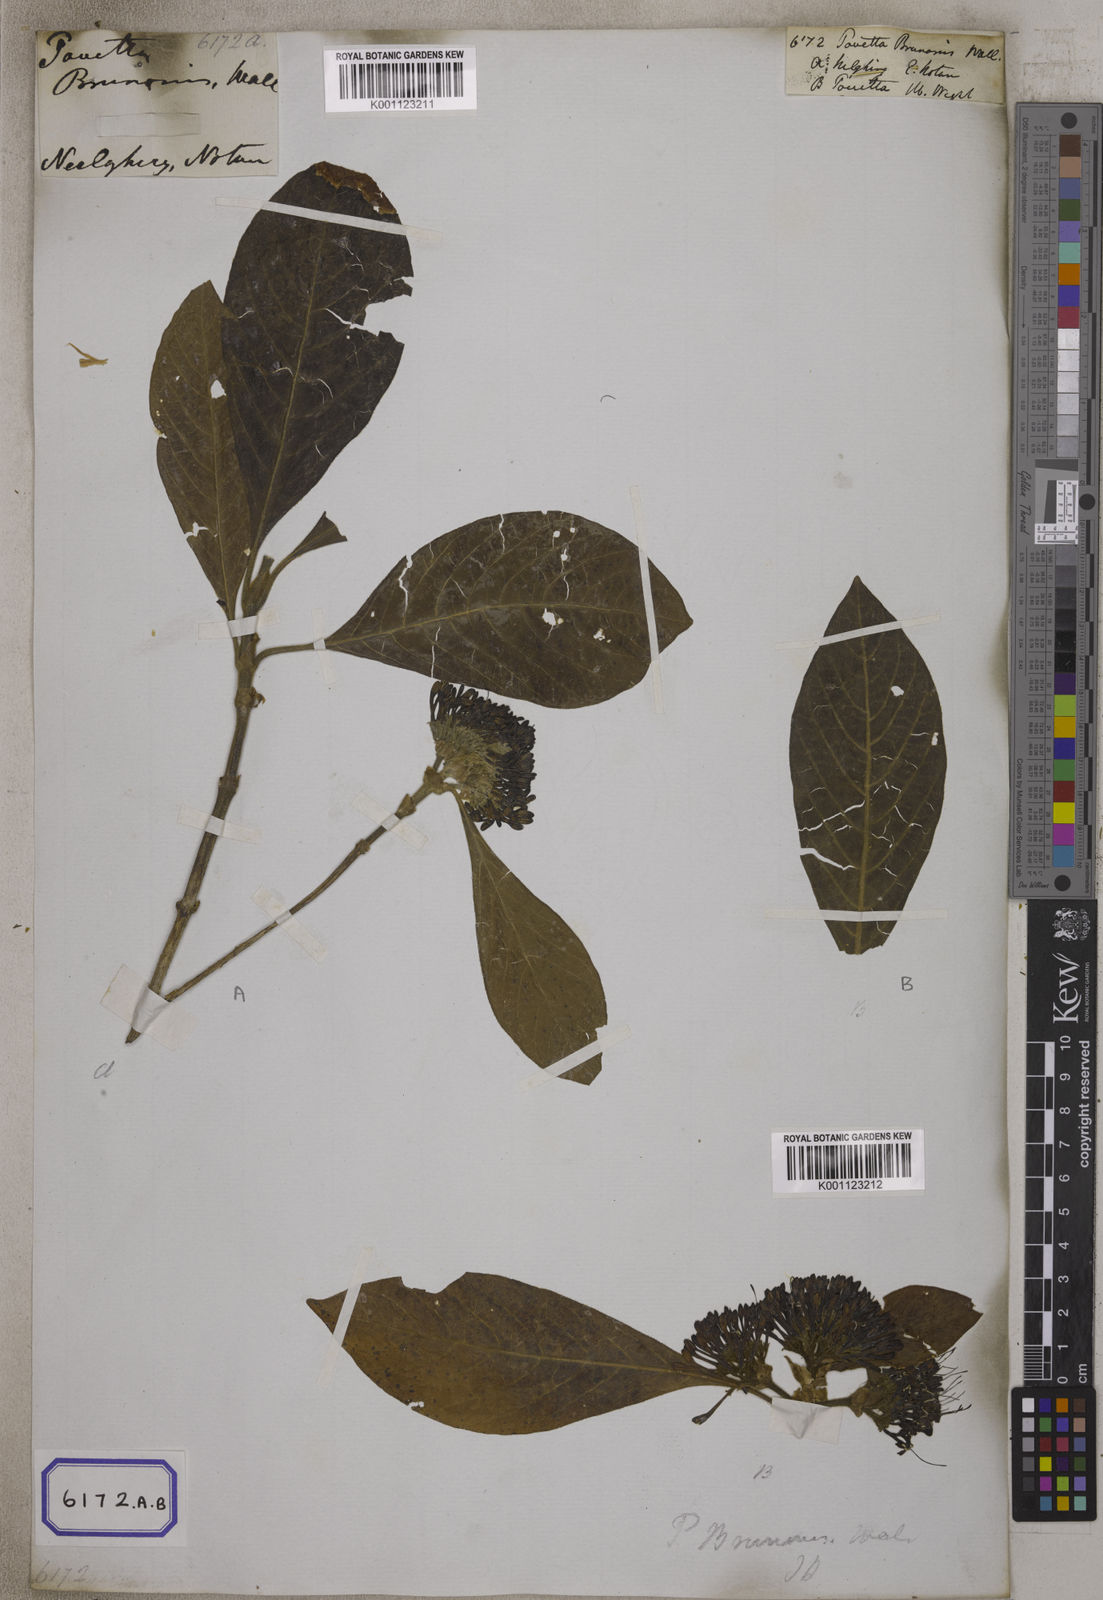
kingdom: Plantae
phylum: Tracheophyta
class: Magnoliopsida
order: Gentianales
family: Rubiaceae
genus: Pavetta
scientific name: Pavetta
